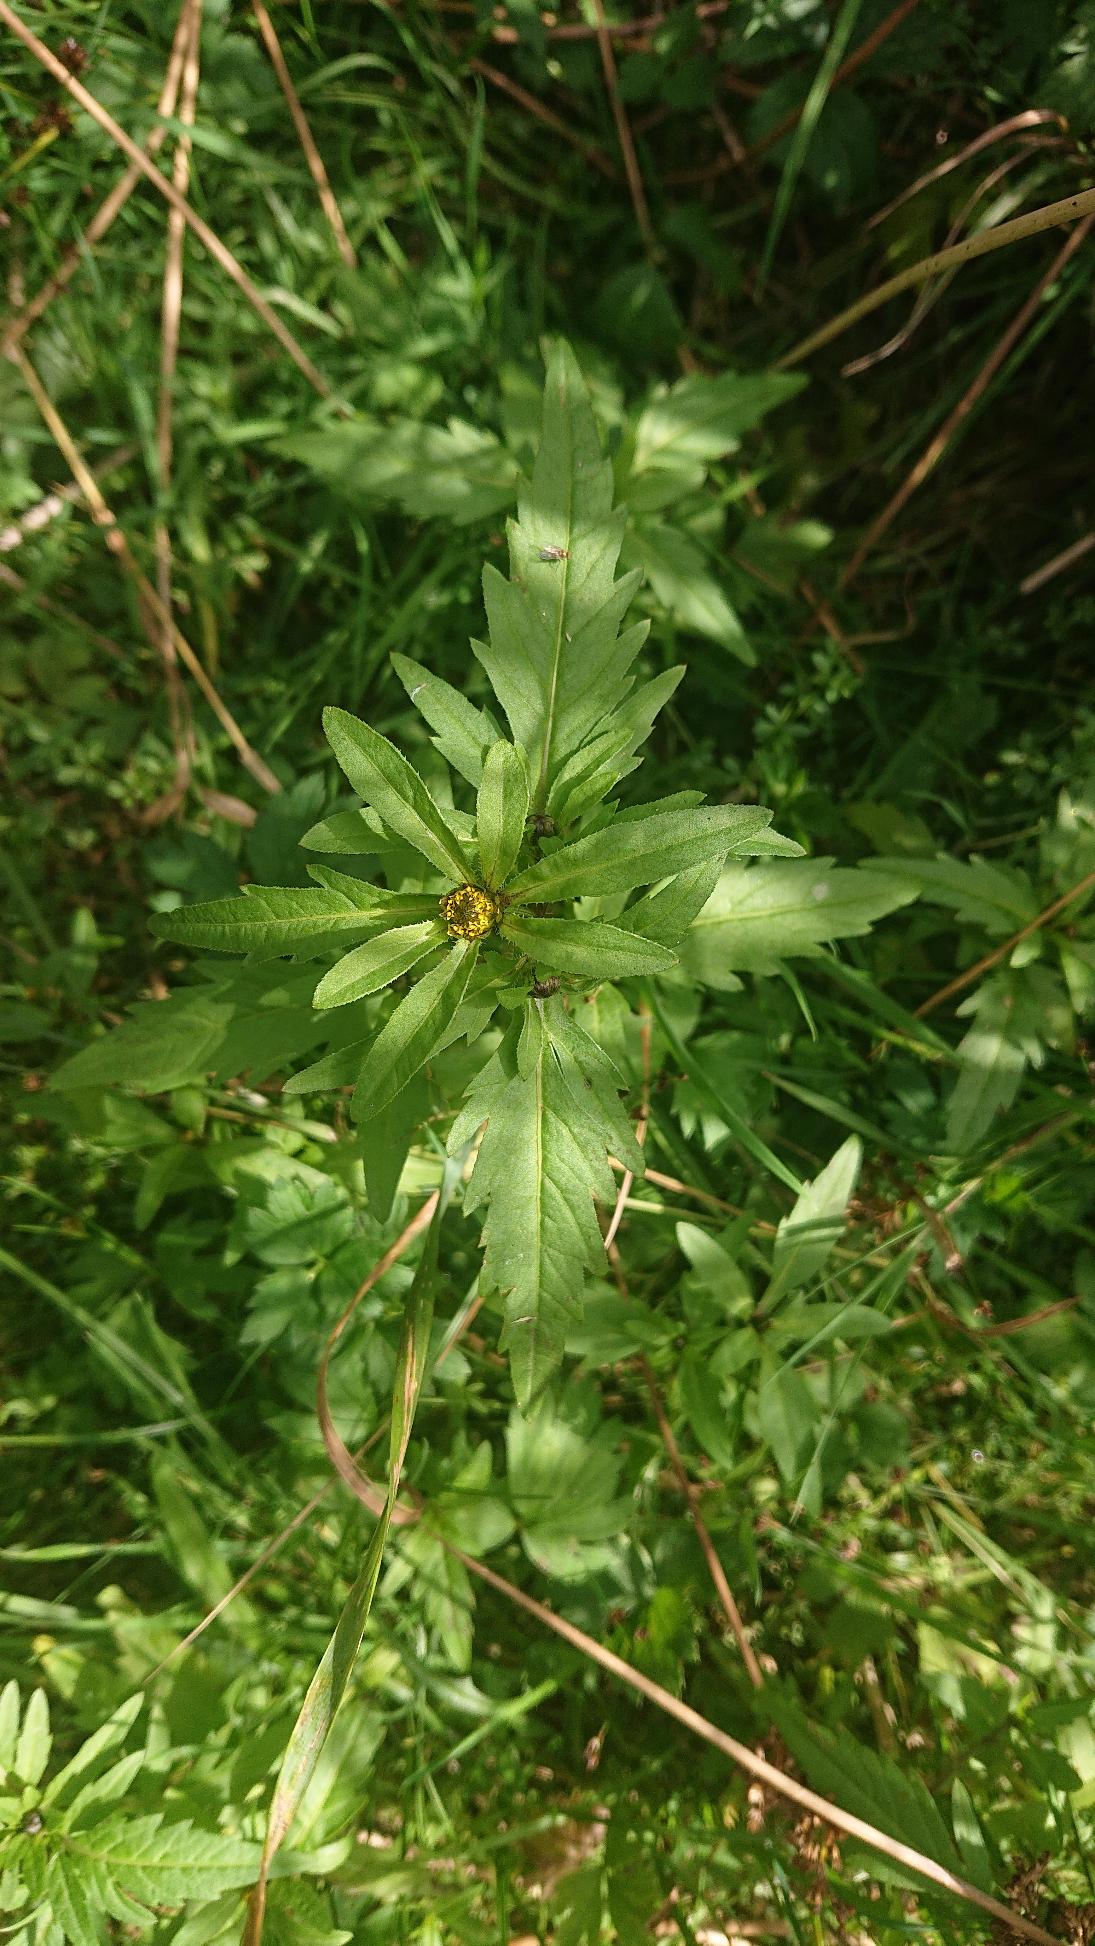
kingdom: Plantae
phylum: Tracheophyta
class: Magnoliopsida
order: Asterales
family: Asteraceae
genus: Bidens
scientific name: Bidens tripartita
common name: Fliget brøndsel
